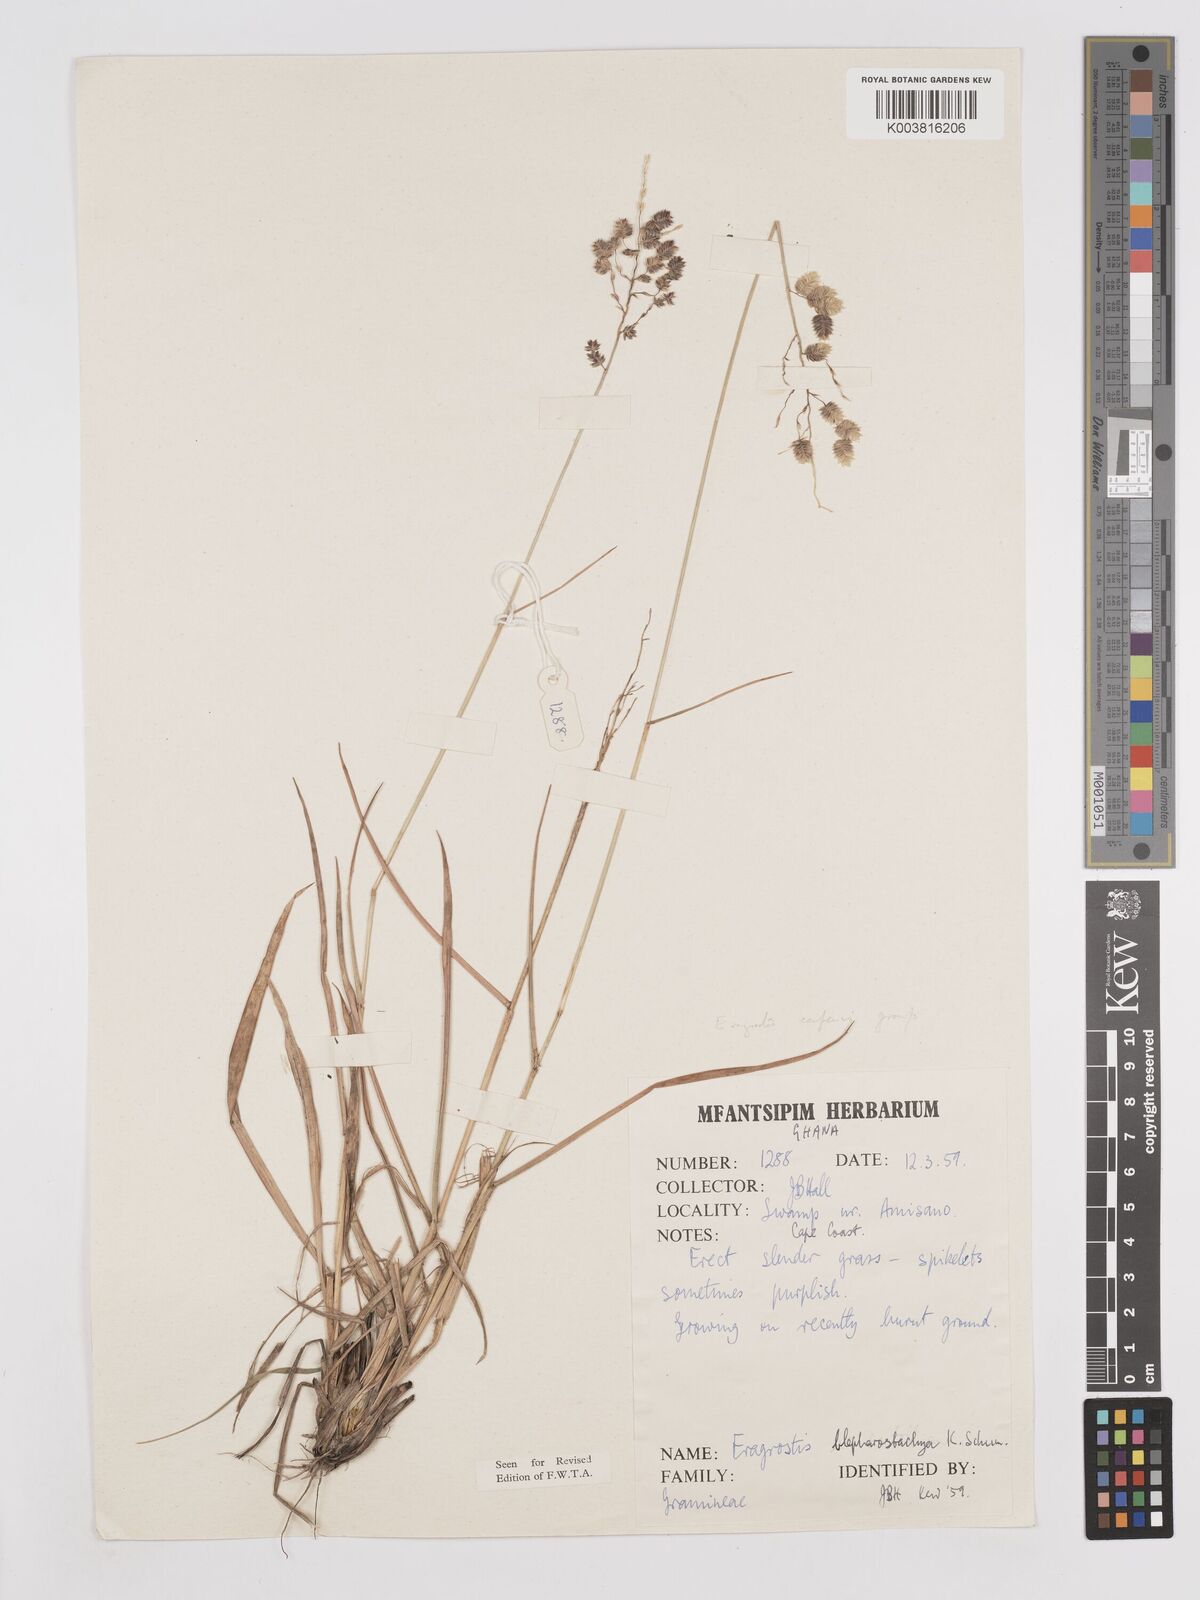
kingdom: Plantae
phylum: Tracheophyta
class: Liliopsida
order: Poales
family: Poaceae
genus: Eragrostis
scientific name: Eragrostis blepharostachya
